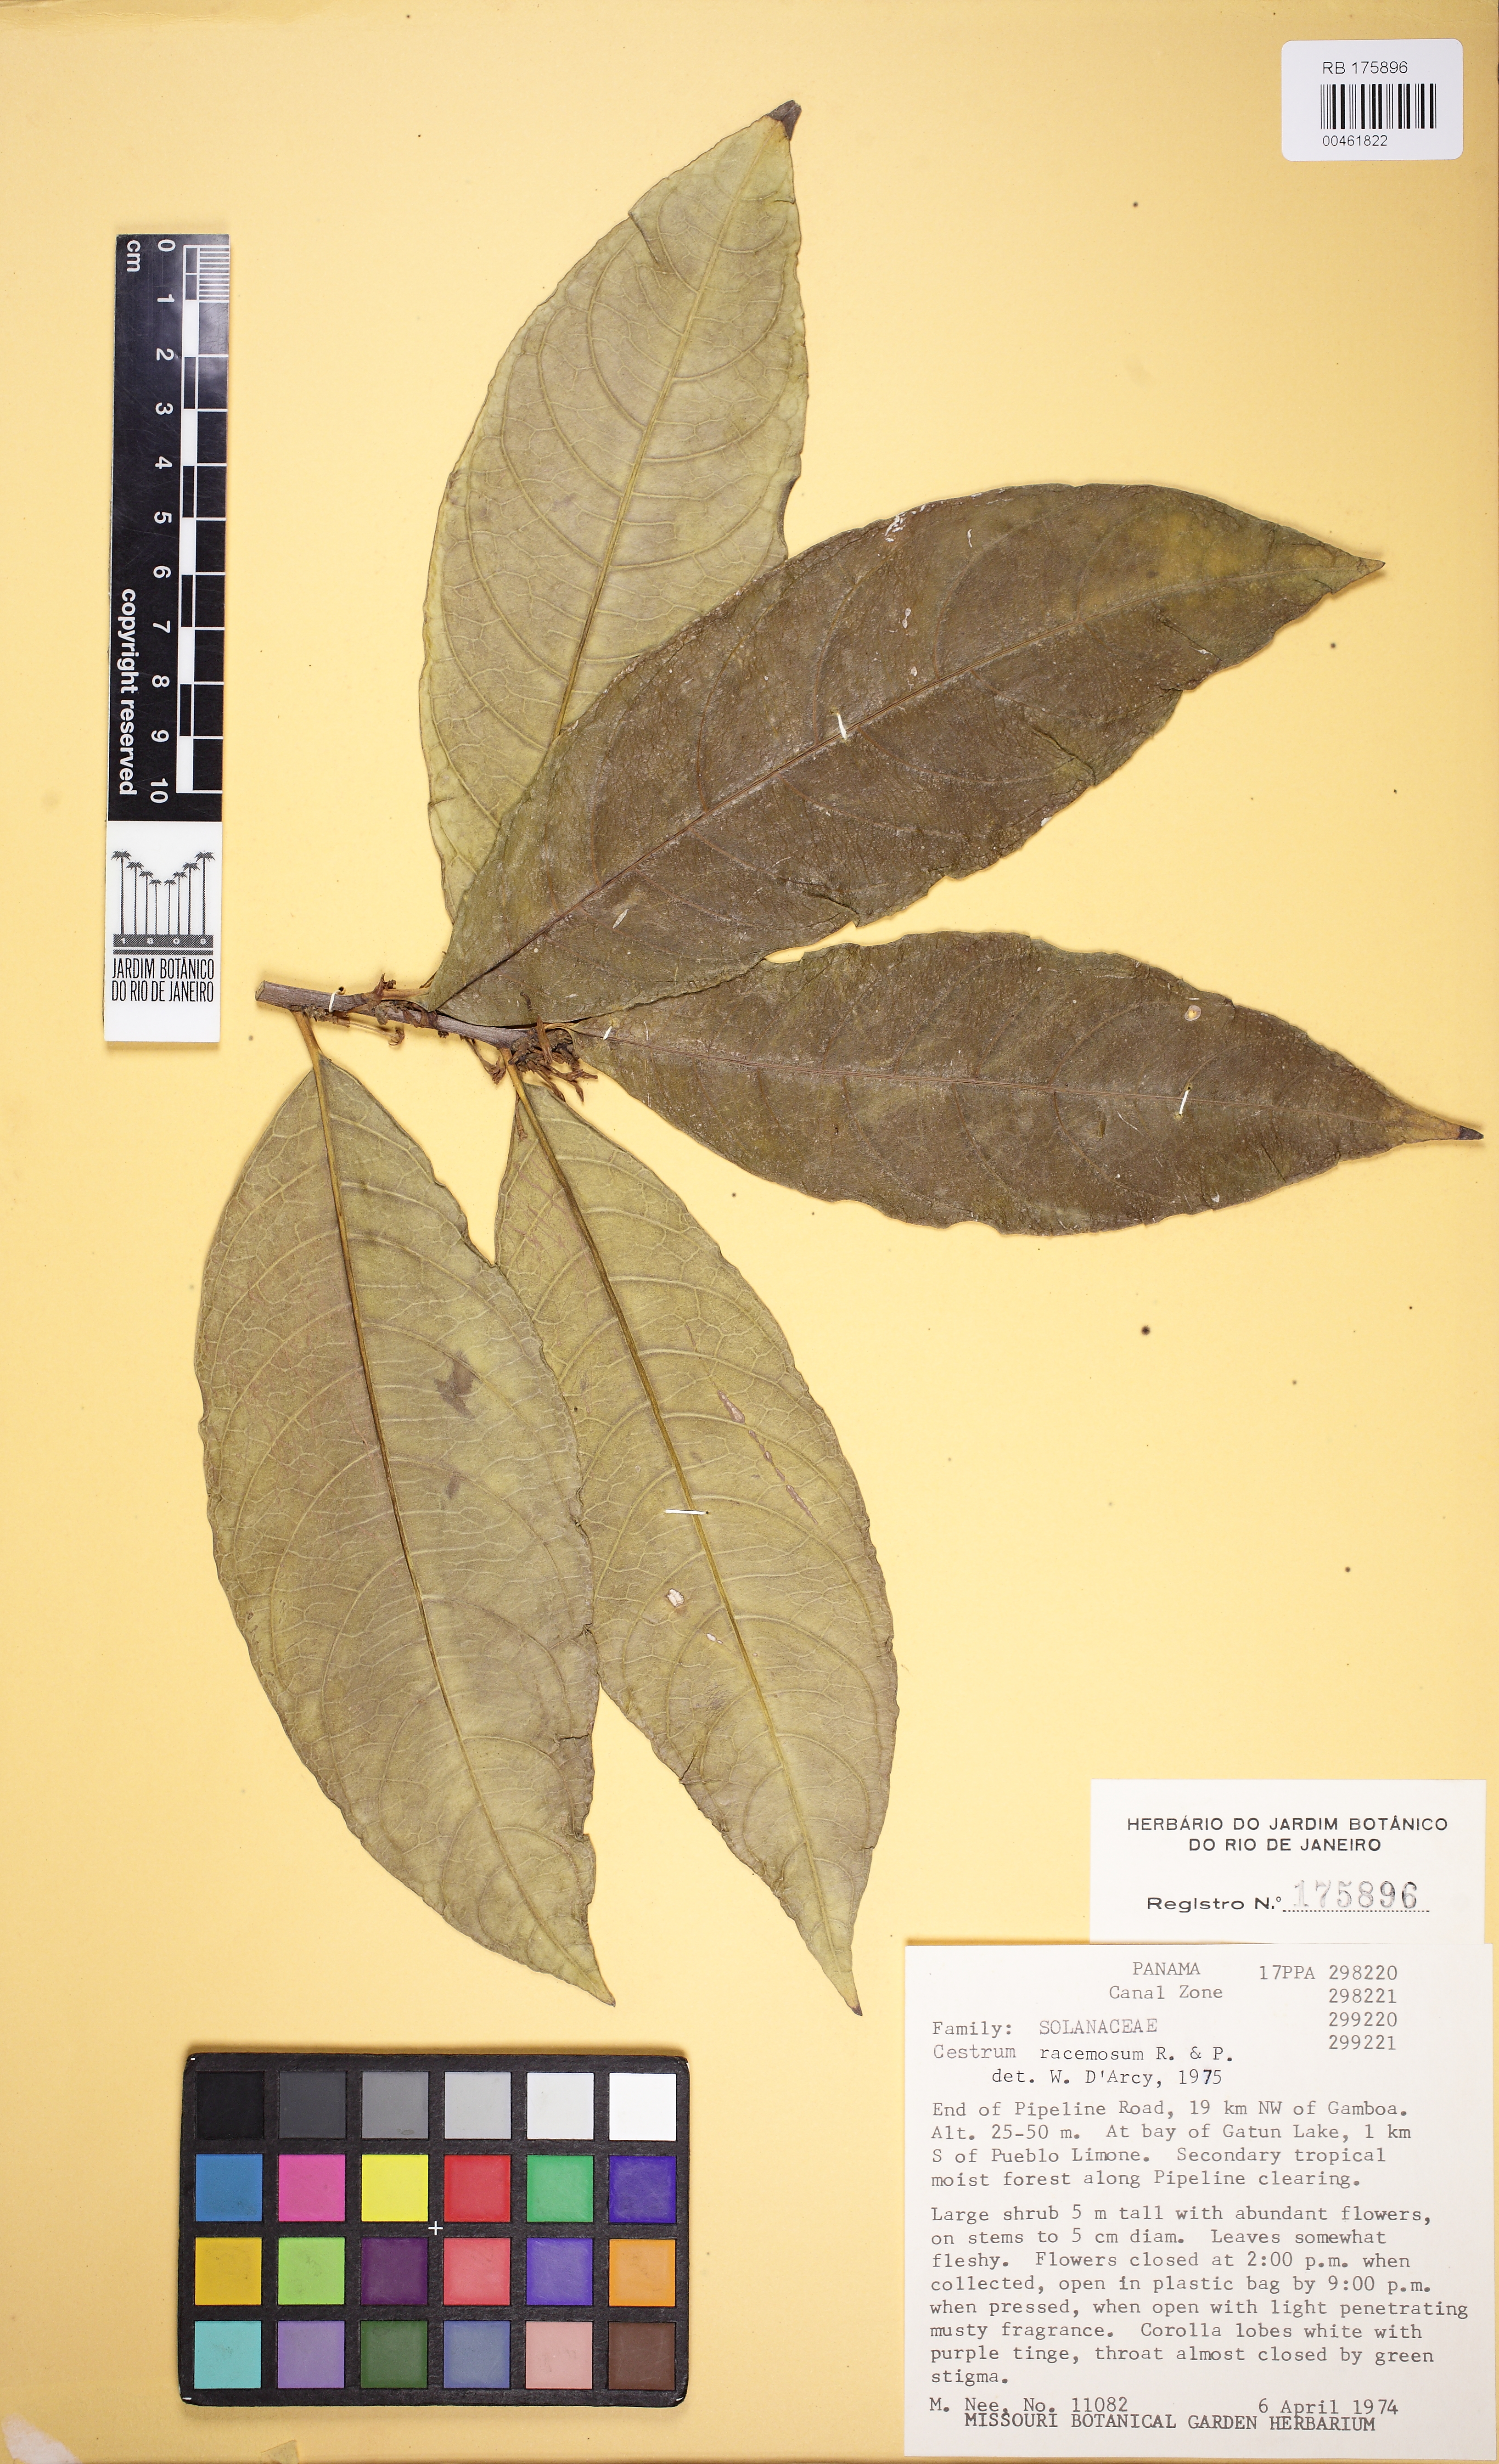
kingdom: Plantae
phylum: Tracheophyta
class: Magnoliopsida
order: Solanales
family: Solanaceae
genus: Cestrum
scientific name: Cestrum racemosum
